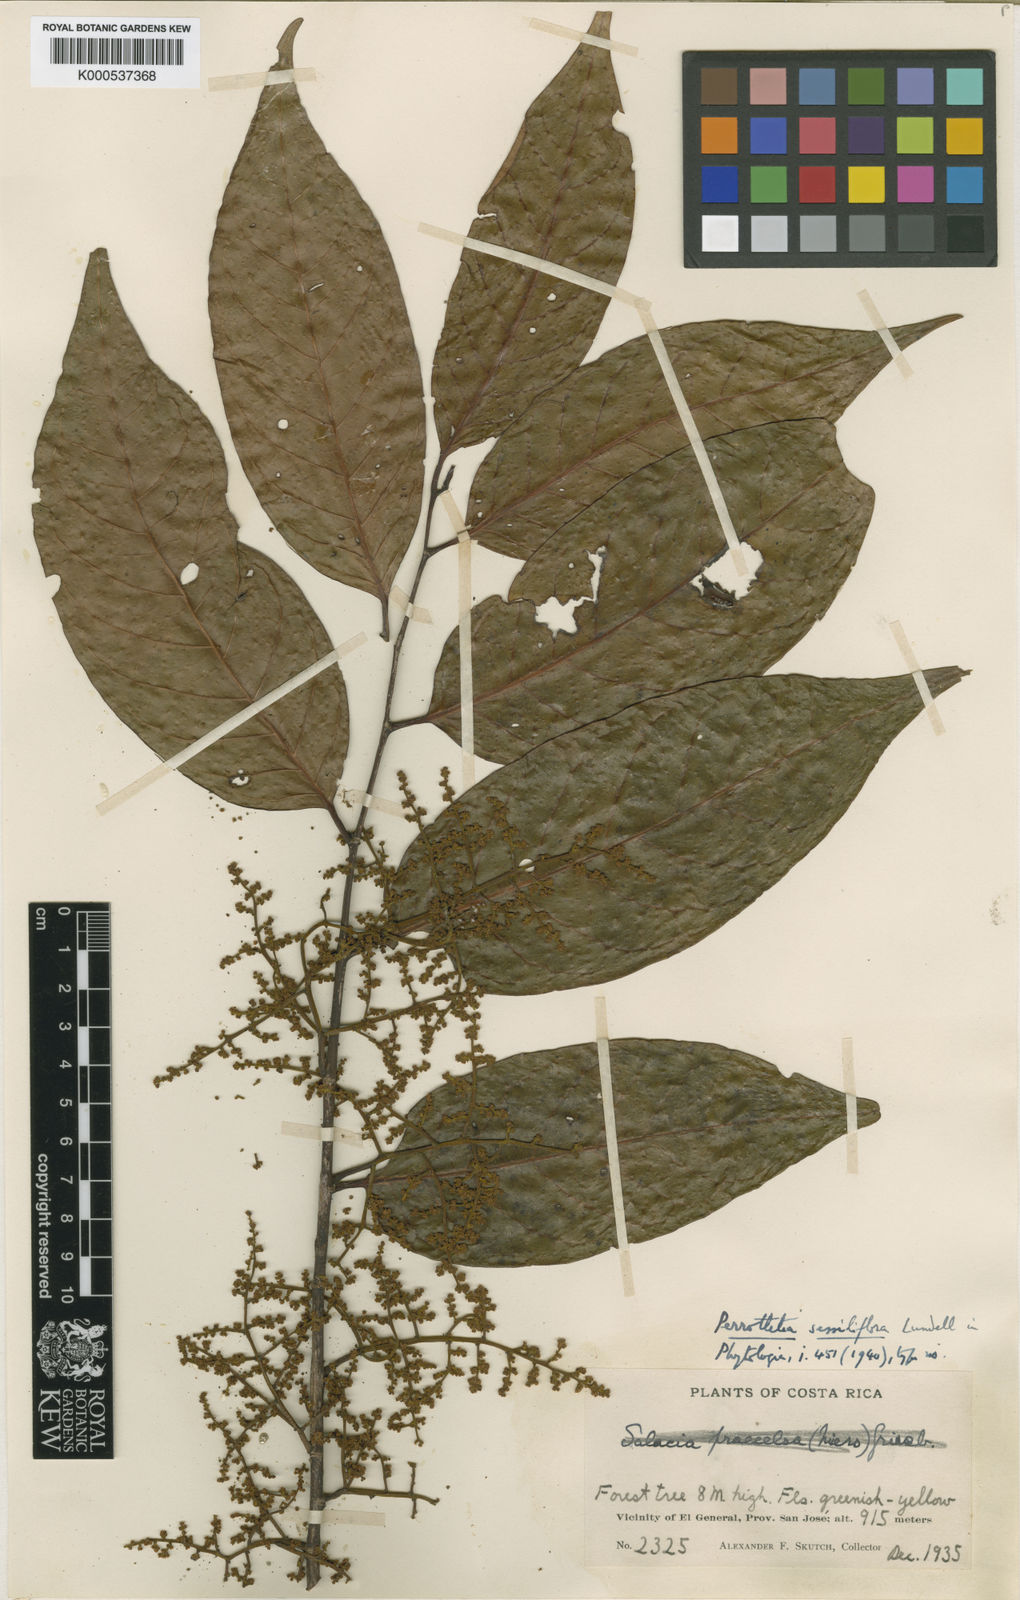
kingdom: Plantae
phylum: Tracheophyta
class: Magnoliopsida
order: Huerteales
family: Dipentodontaceae
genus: Perrottetia
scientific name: Perrottetia sessiliflora
